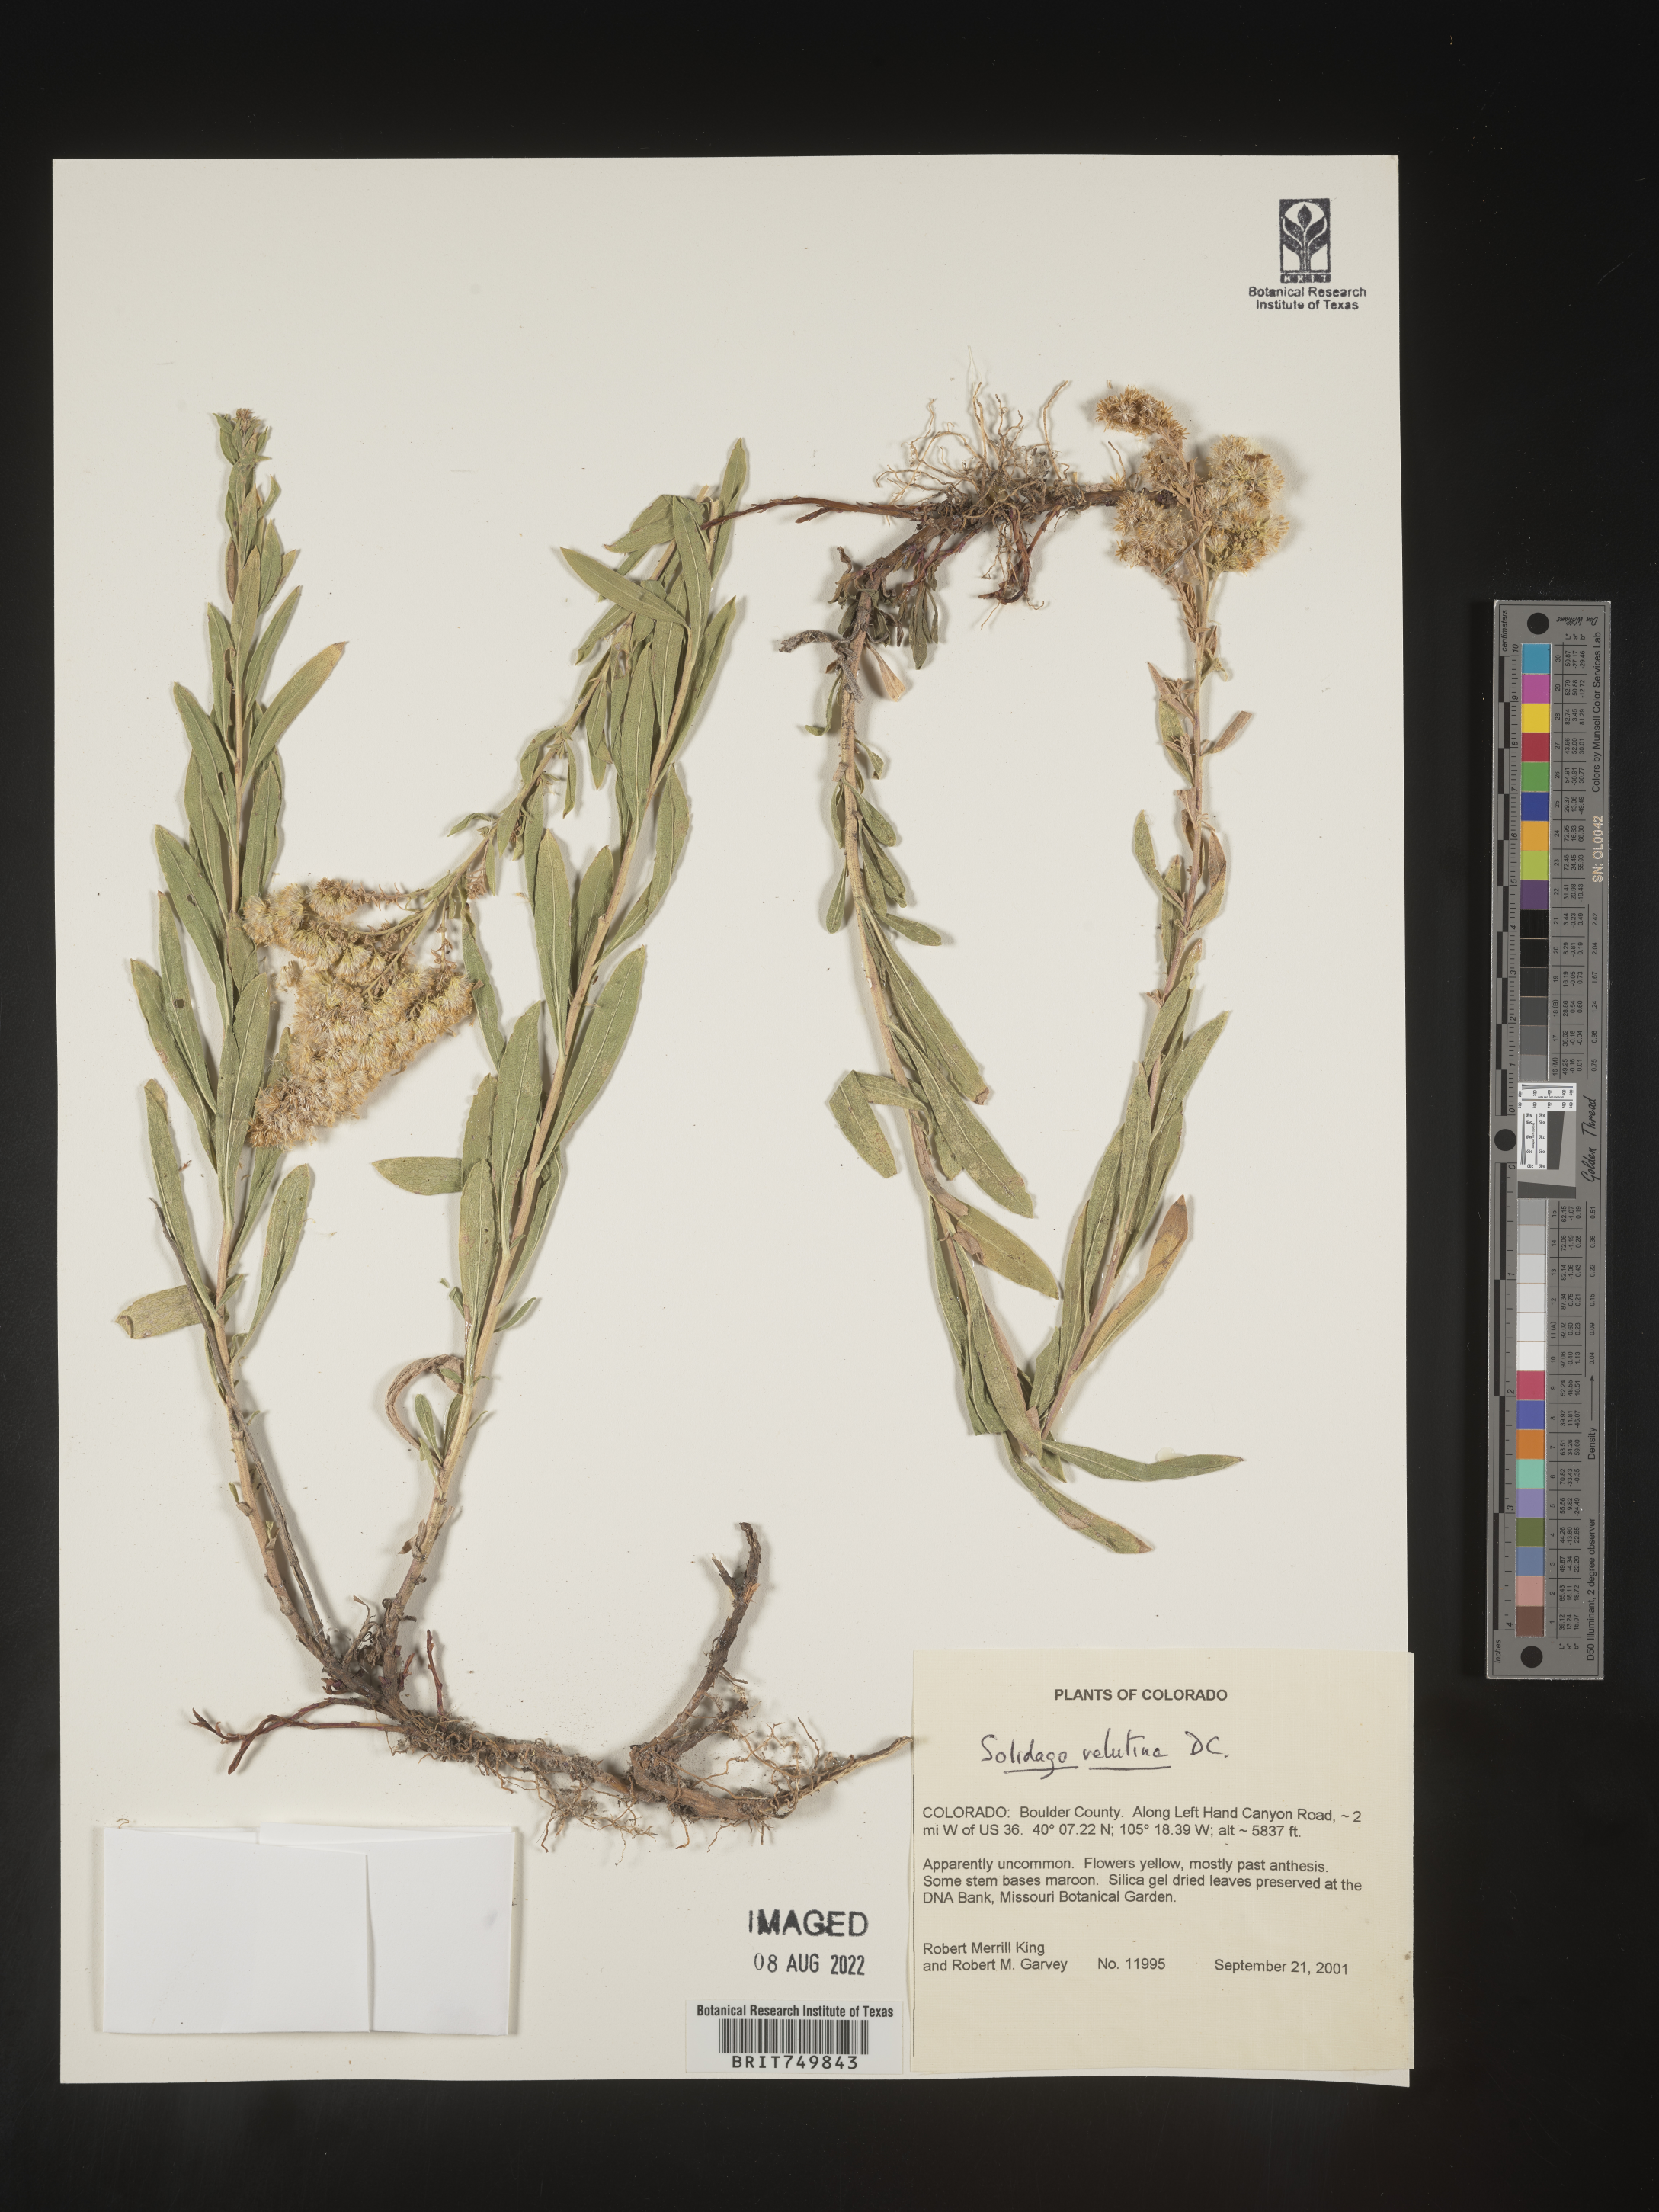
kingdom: Plantae
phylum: Tracheophyta
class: Magnoliopsida
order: Asterales
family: Asteraceae
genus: Solidago
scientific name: Solidago velutina
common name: Three-nerve goldenrod
